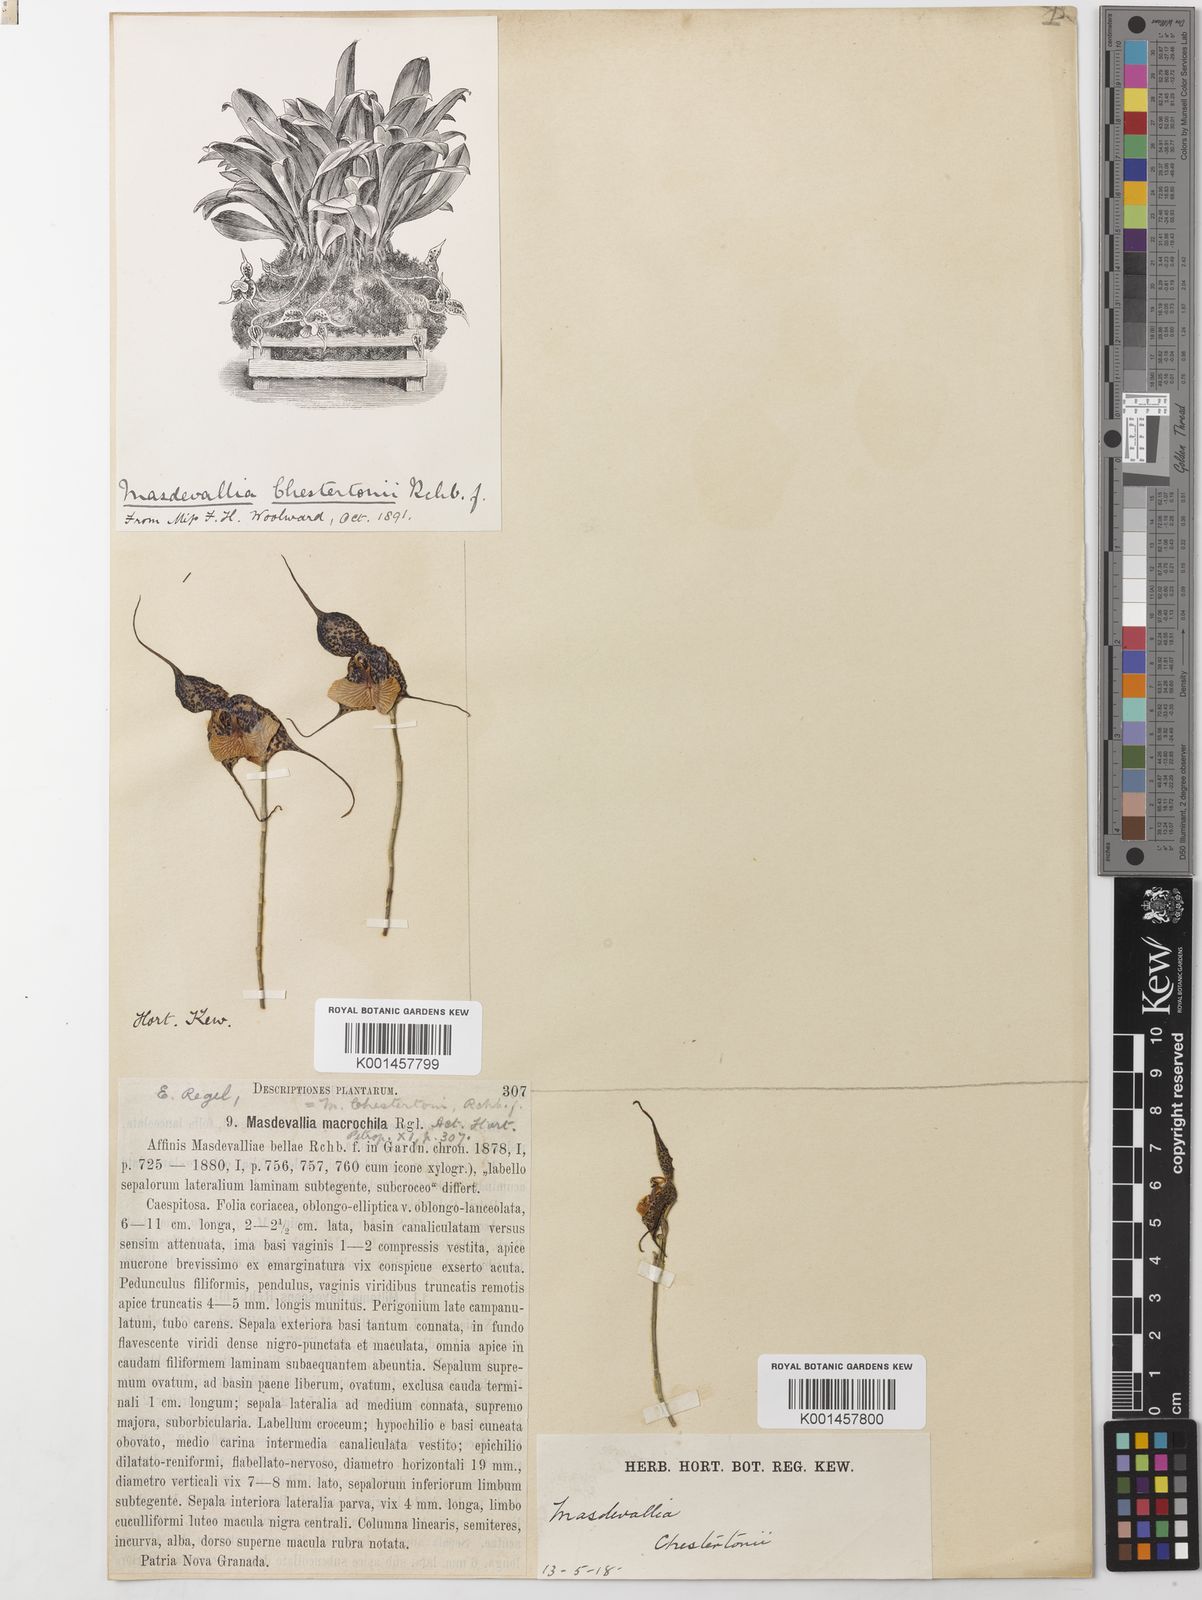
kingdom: Plantae
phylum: Tracheophyta
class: Liliopsida
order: Asparagales
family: Orchidaceae
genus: Dracula
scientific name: Dracula chestertonii
